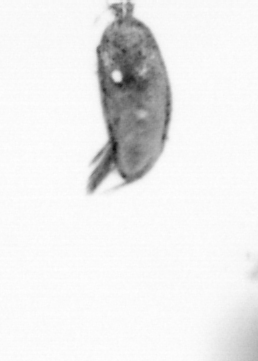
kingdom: Animalia
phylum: Arthropoda
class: Maxillopoda
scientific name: Maxillopoda
